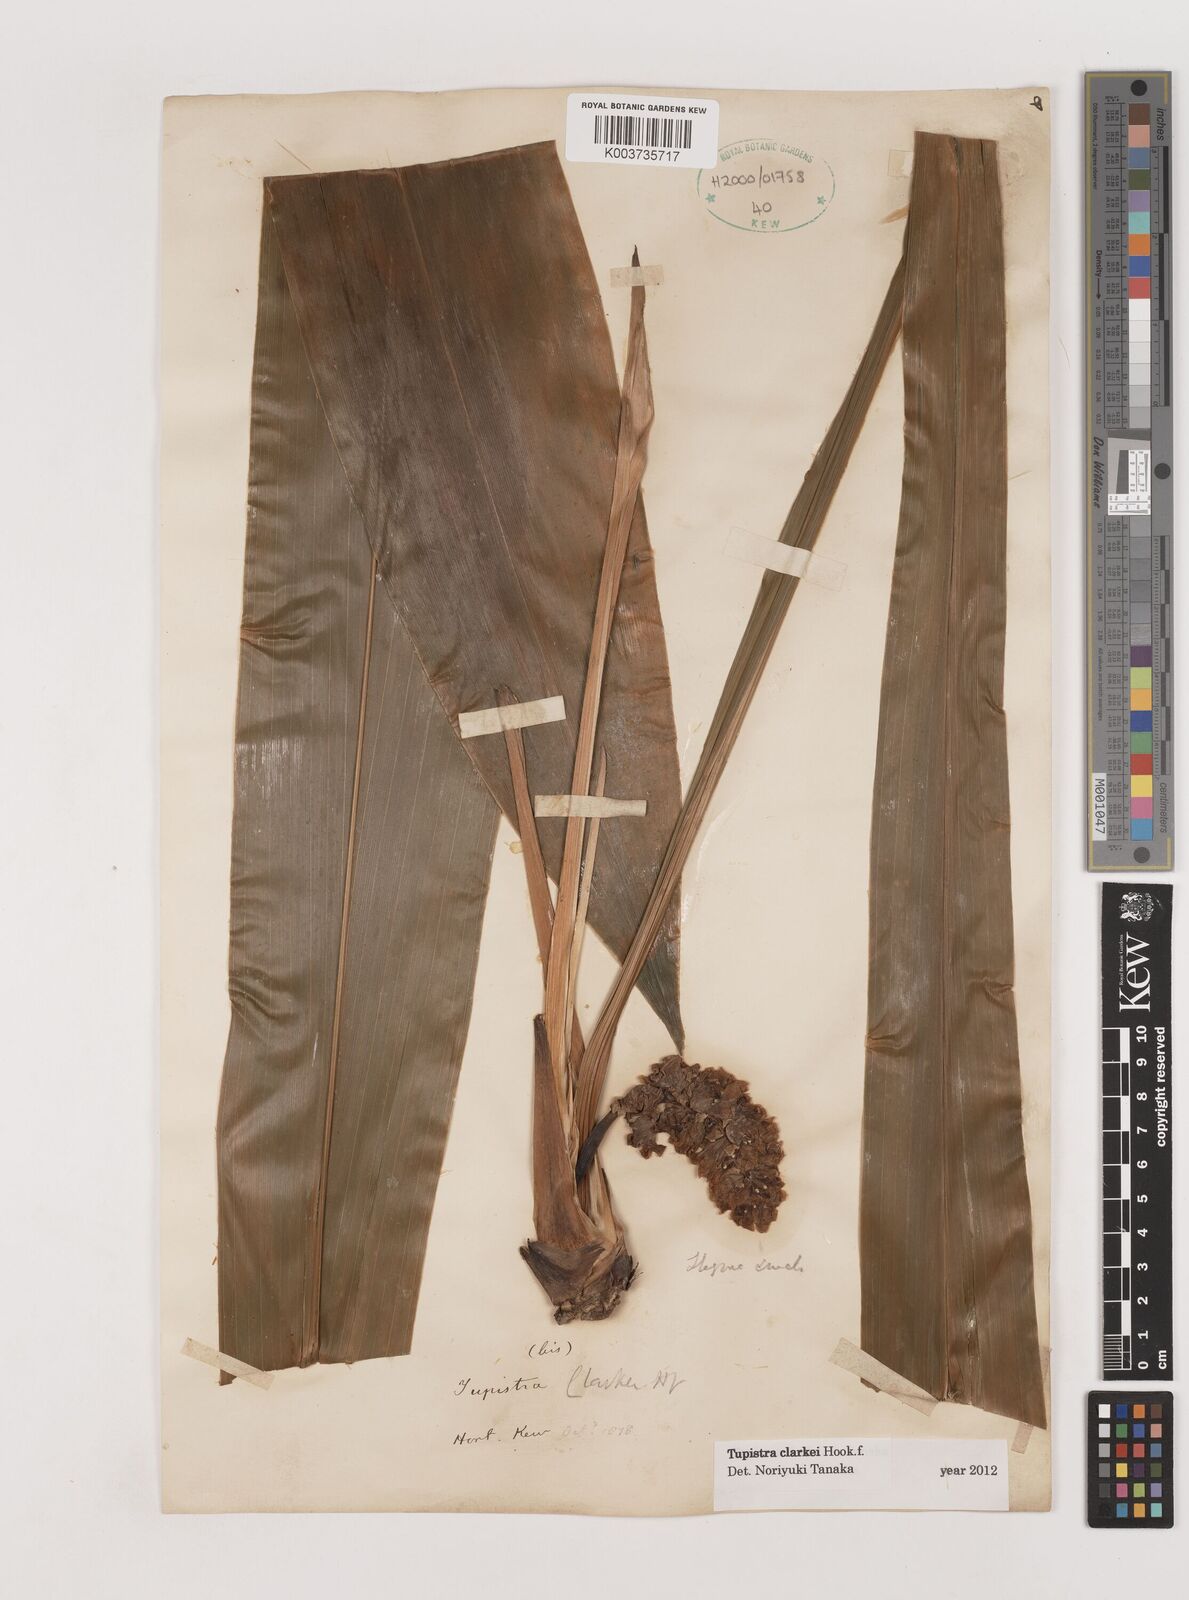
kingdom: Plantae
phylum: Tracheophyta
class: Liliopsida
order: Asparagales
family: Asparagaceae
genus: Tupistra
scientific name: Tupistra violacea
